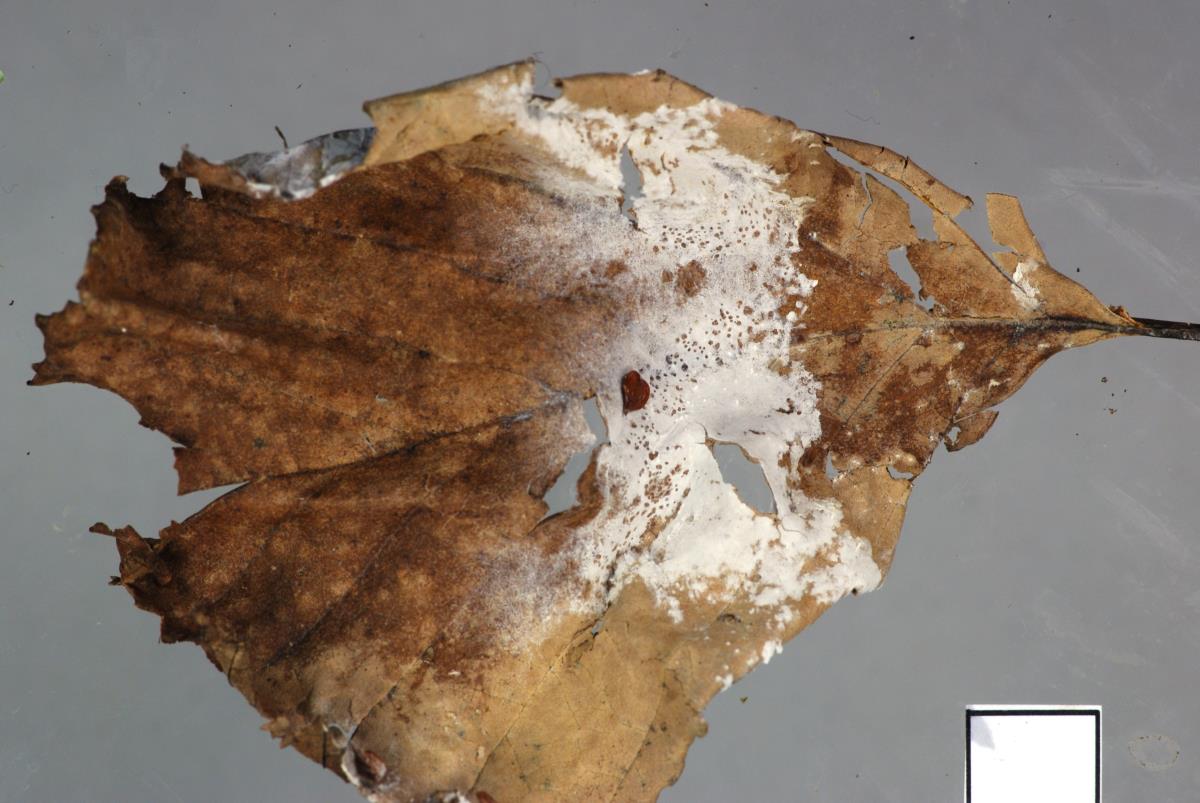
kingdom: Fungi
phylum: Basidiomycota
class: Agaricomycetes
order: Atheliales
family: Atheliaceae
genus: Athelia
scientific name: Athelia arachnoidea
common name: Candelabra duster
